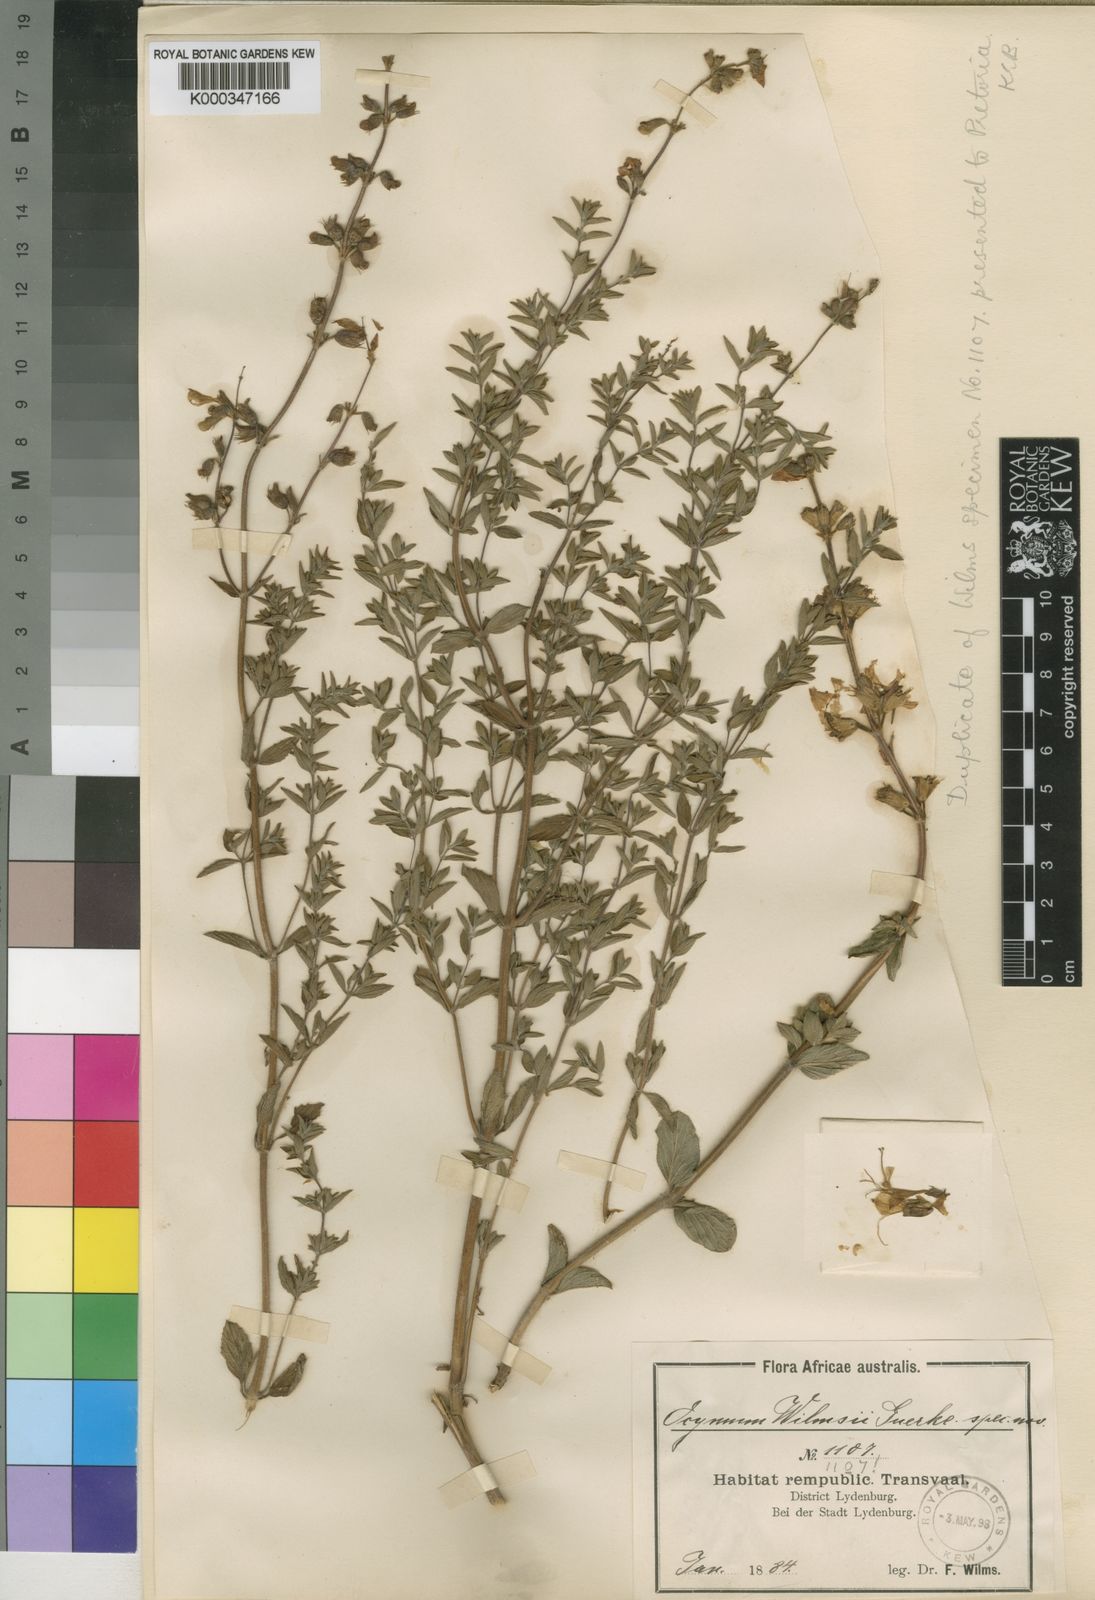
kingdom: Plantae
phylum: Tracheophyta
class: Magnoliopsida
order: Lamiales
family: Lamiaceae
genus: Syncolostemon
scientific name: Syncolostemon transvaalensis
